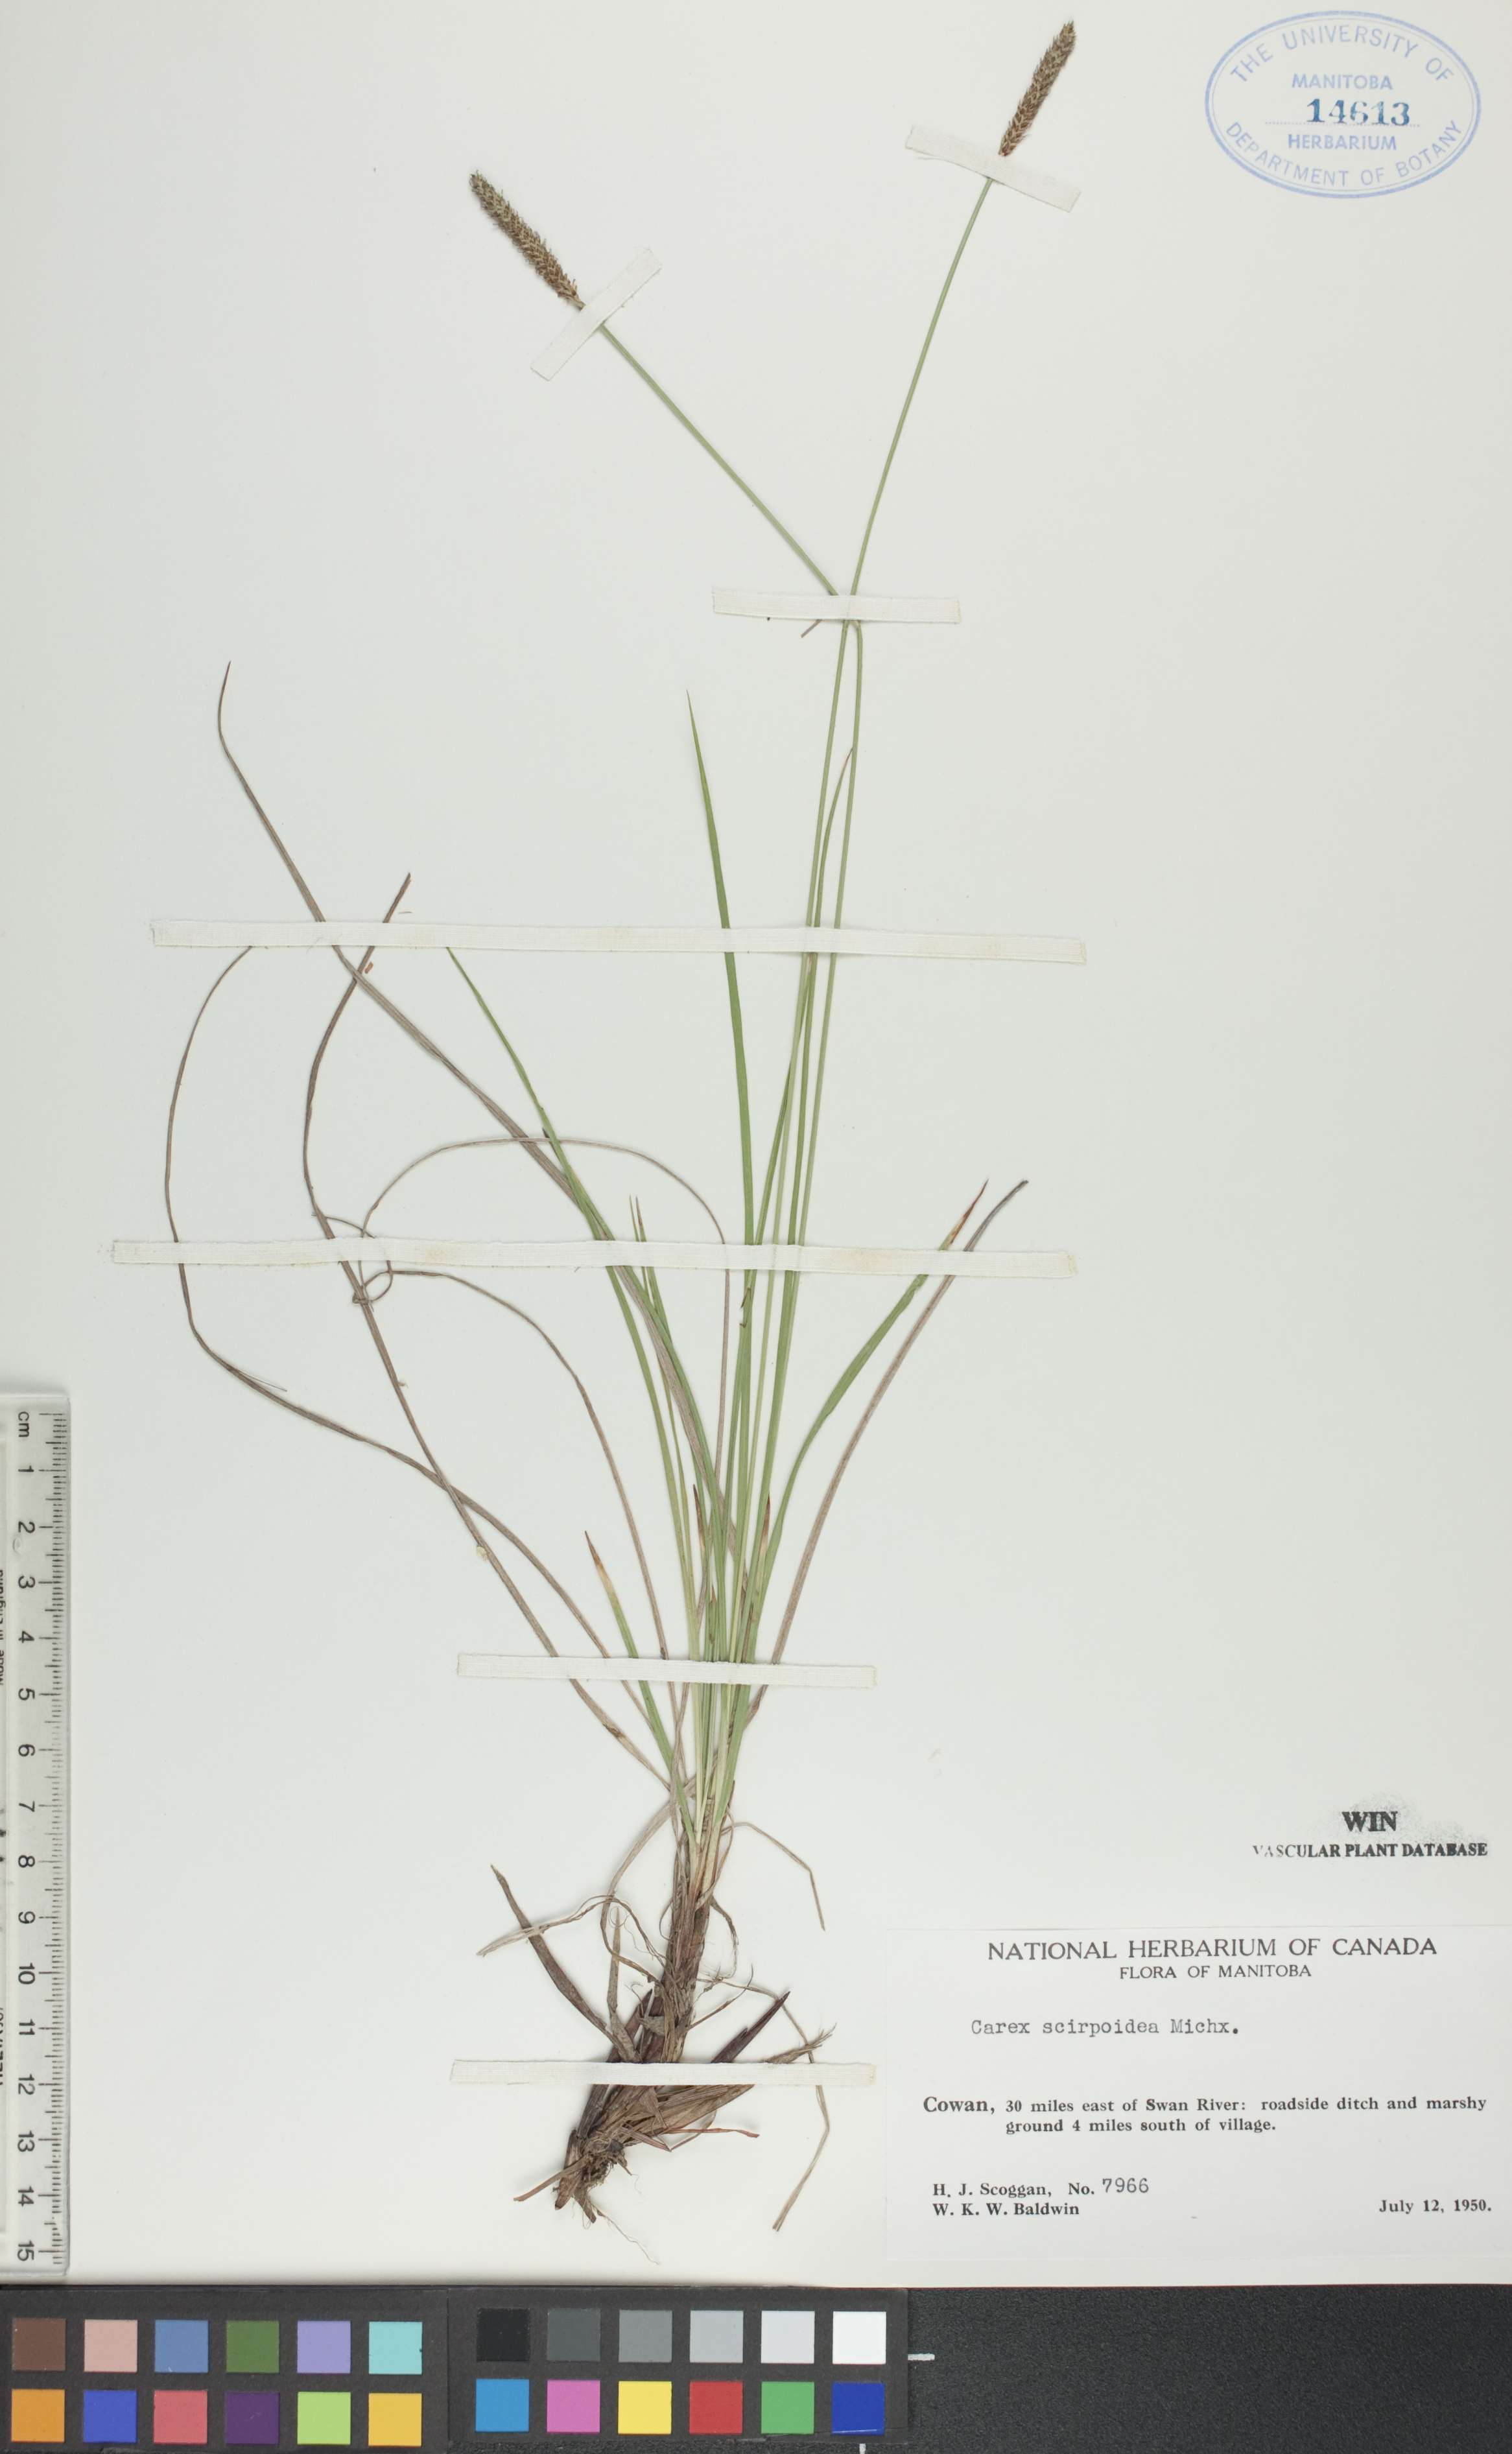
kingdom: Plantae
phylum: Tracheophyta
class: Liliopsida
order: Poales
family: Cyperaceae
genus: Carex
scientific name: Carex scirpoidea
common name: Canada single-spike sedge
